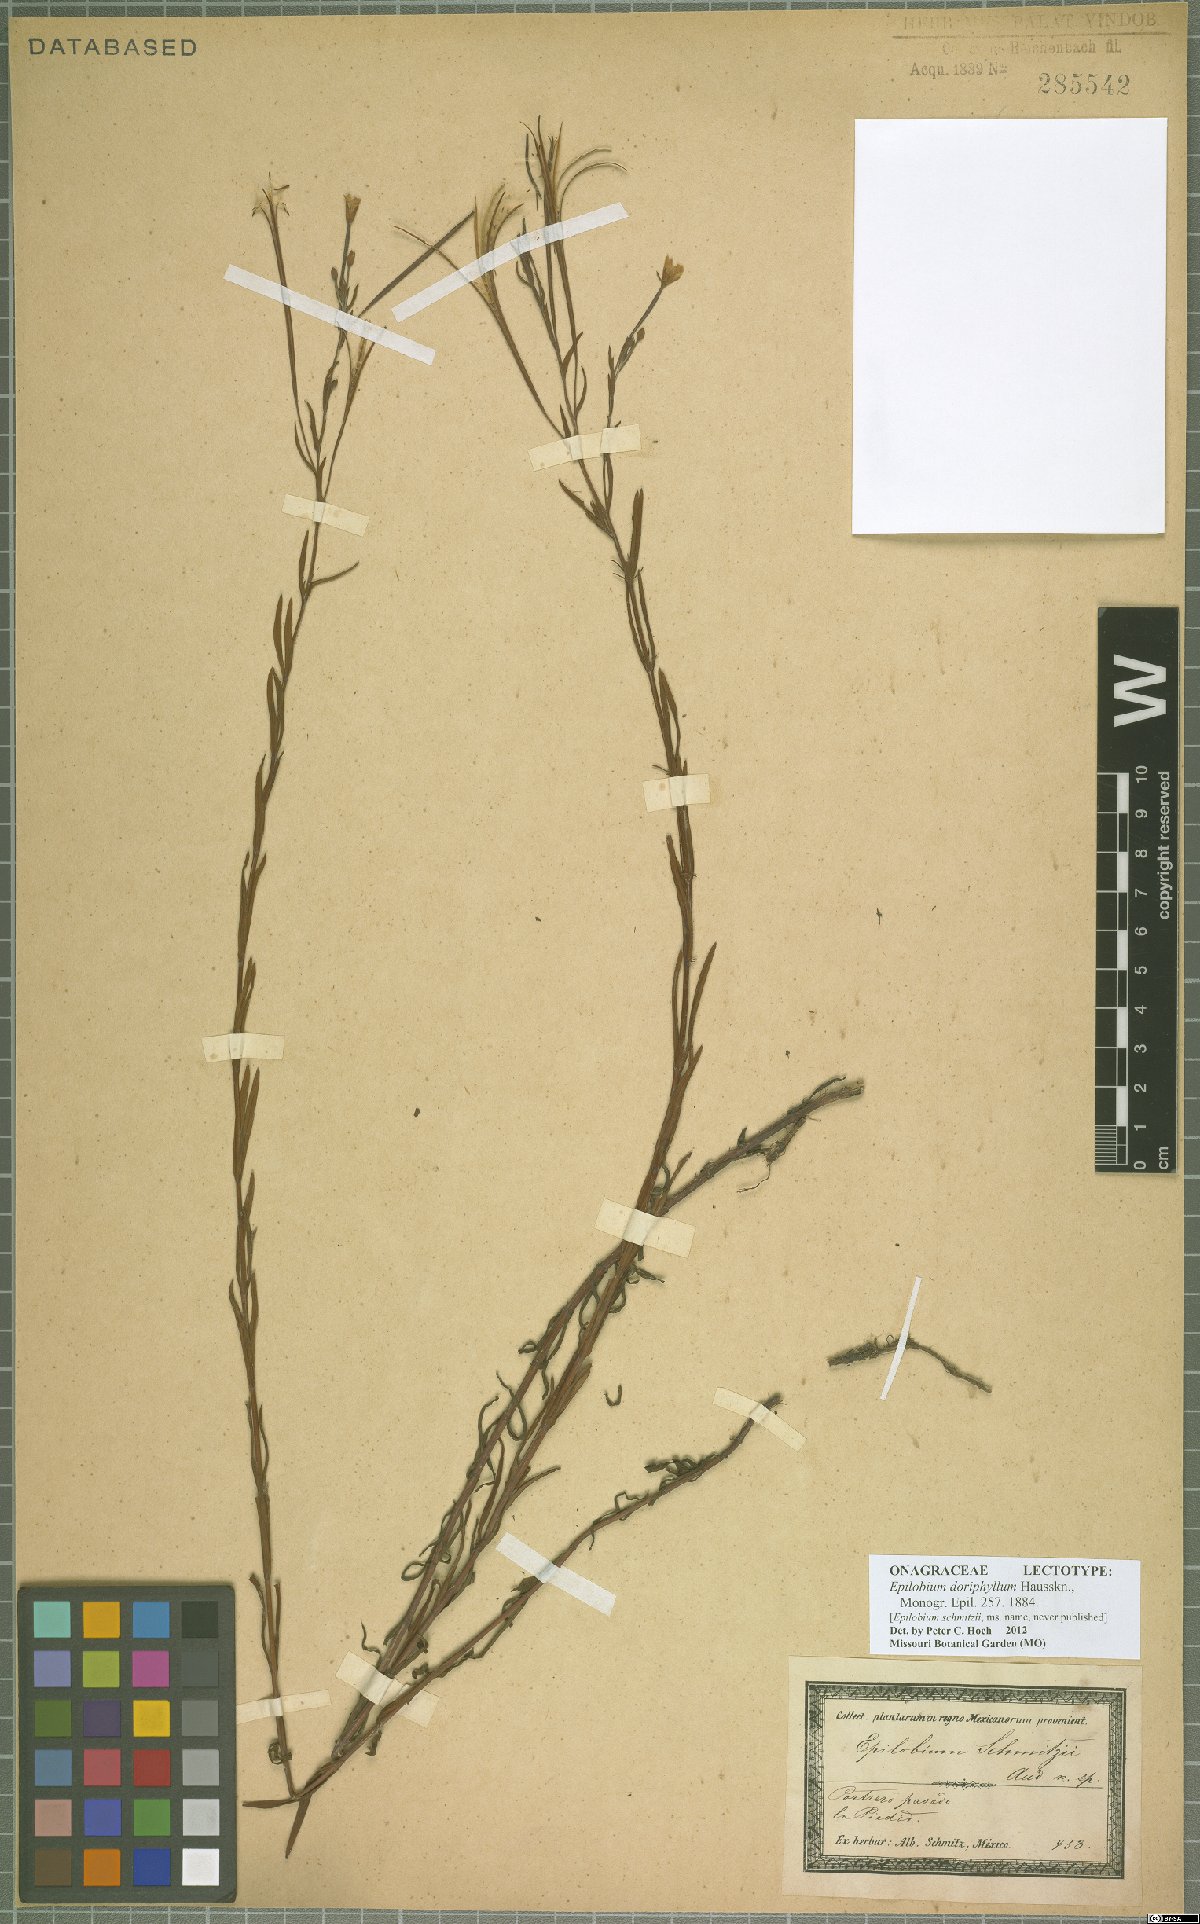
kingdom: Plantae
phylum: Tracheophyta
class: Magnoliopsida
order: Myrtales
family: Onagraceae
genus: Epilobium
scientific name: Epilobium ciliatum
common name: American willowherb
